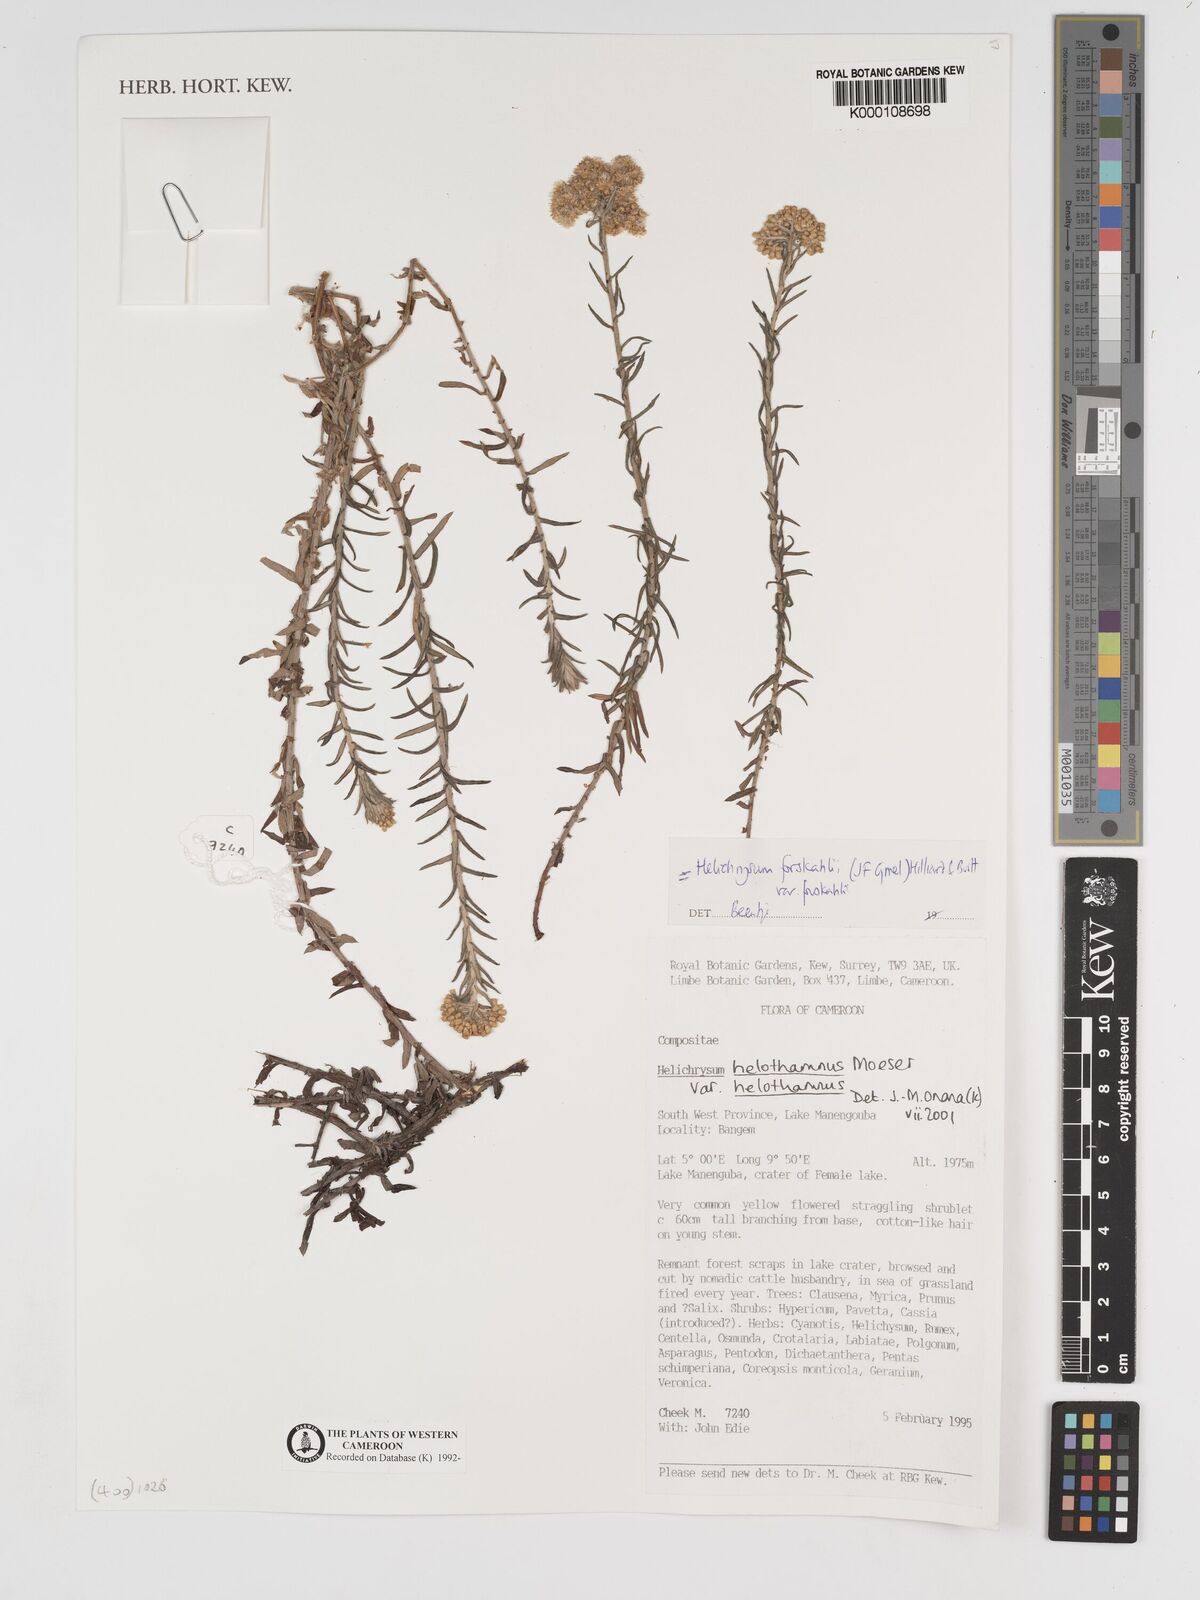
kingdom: Plantae
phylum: Tracheophyta
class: Magnoliopsida
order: Asterales
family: Asteraceae
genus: Helichrysum
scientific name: Helichrysum forskahlii
